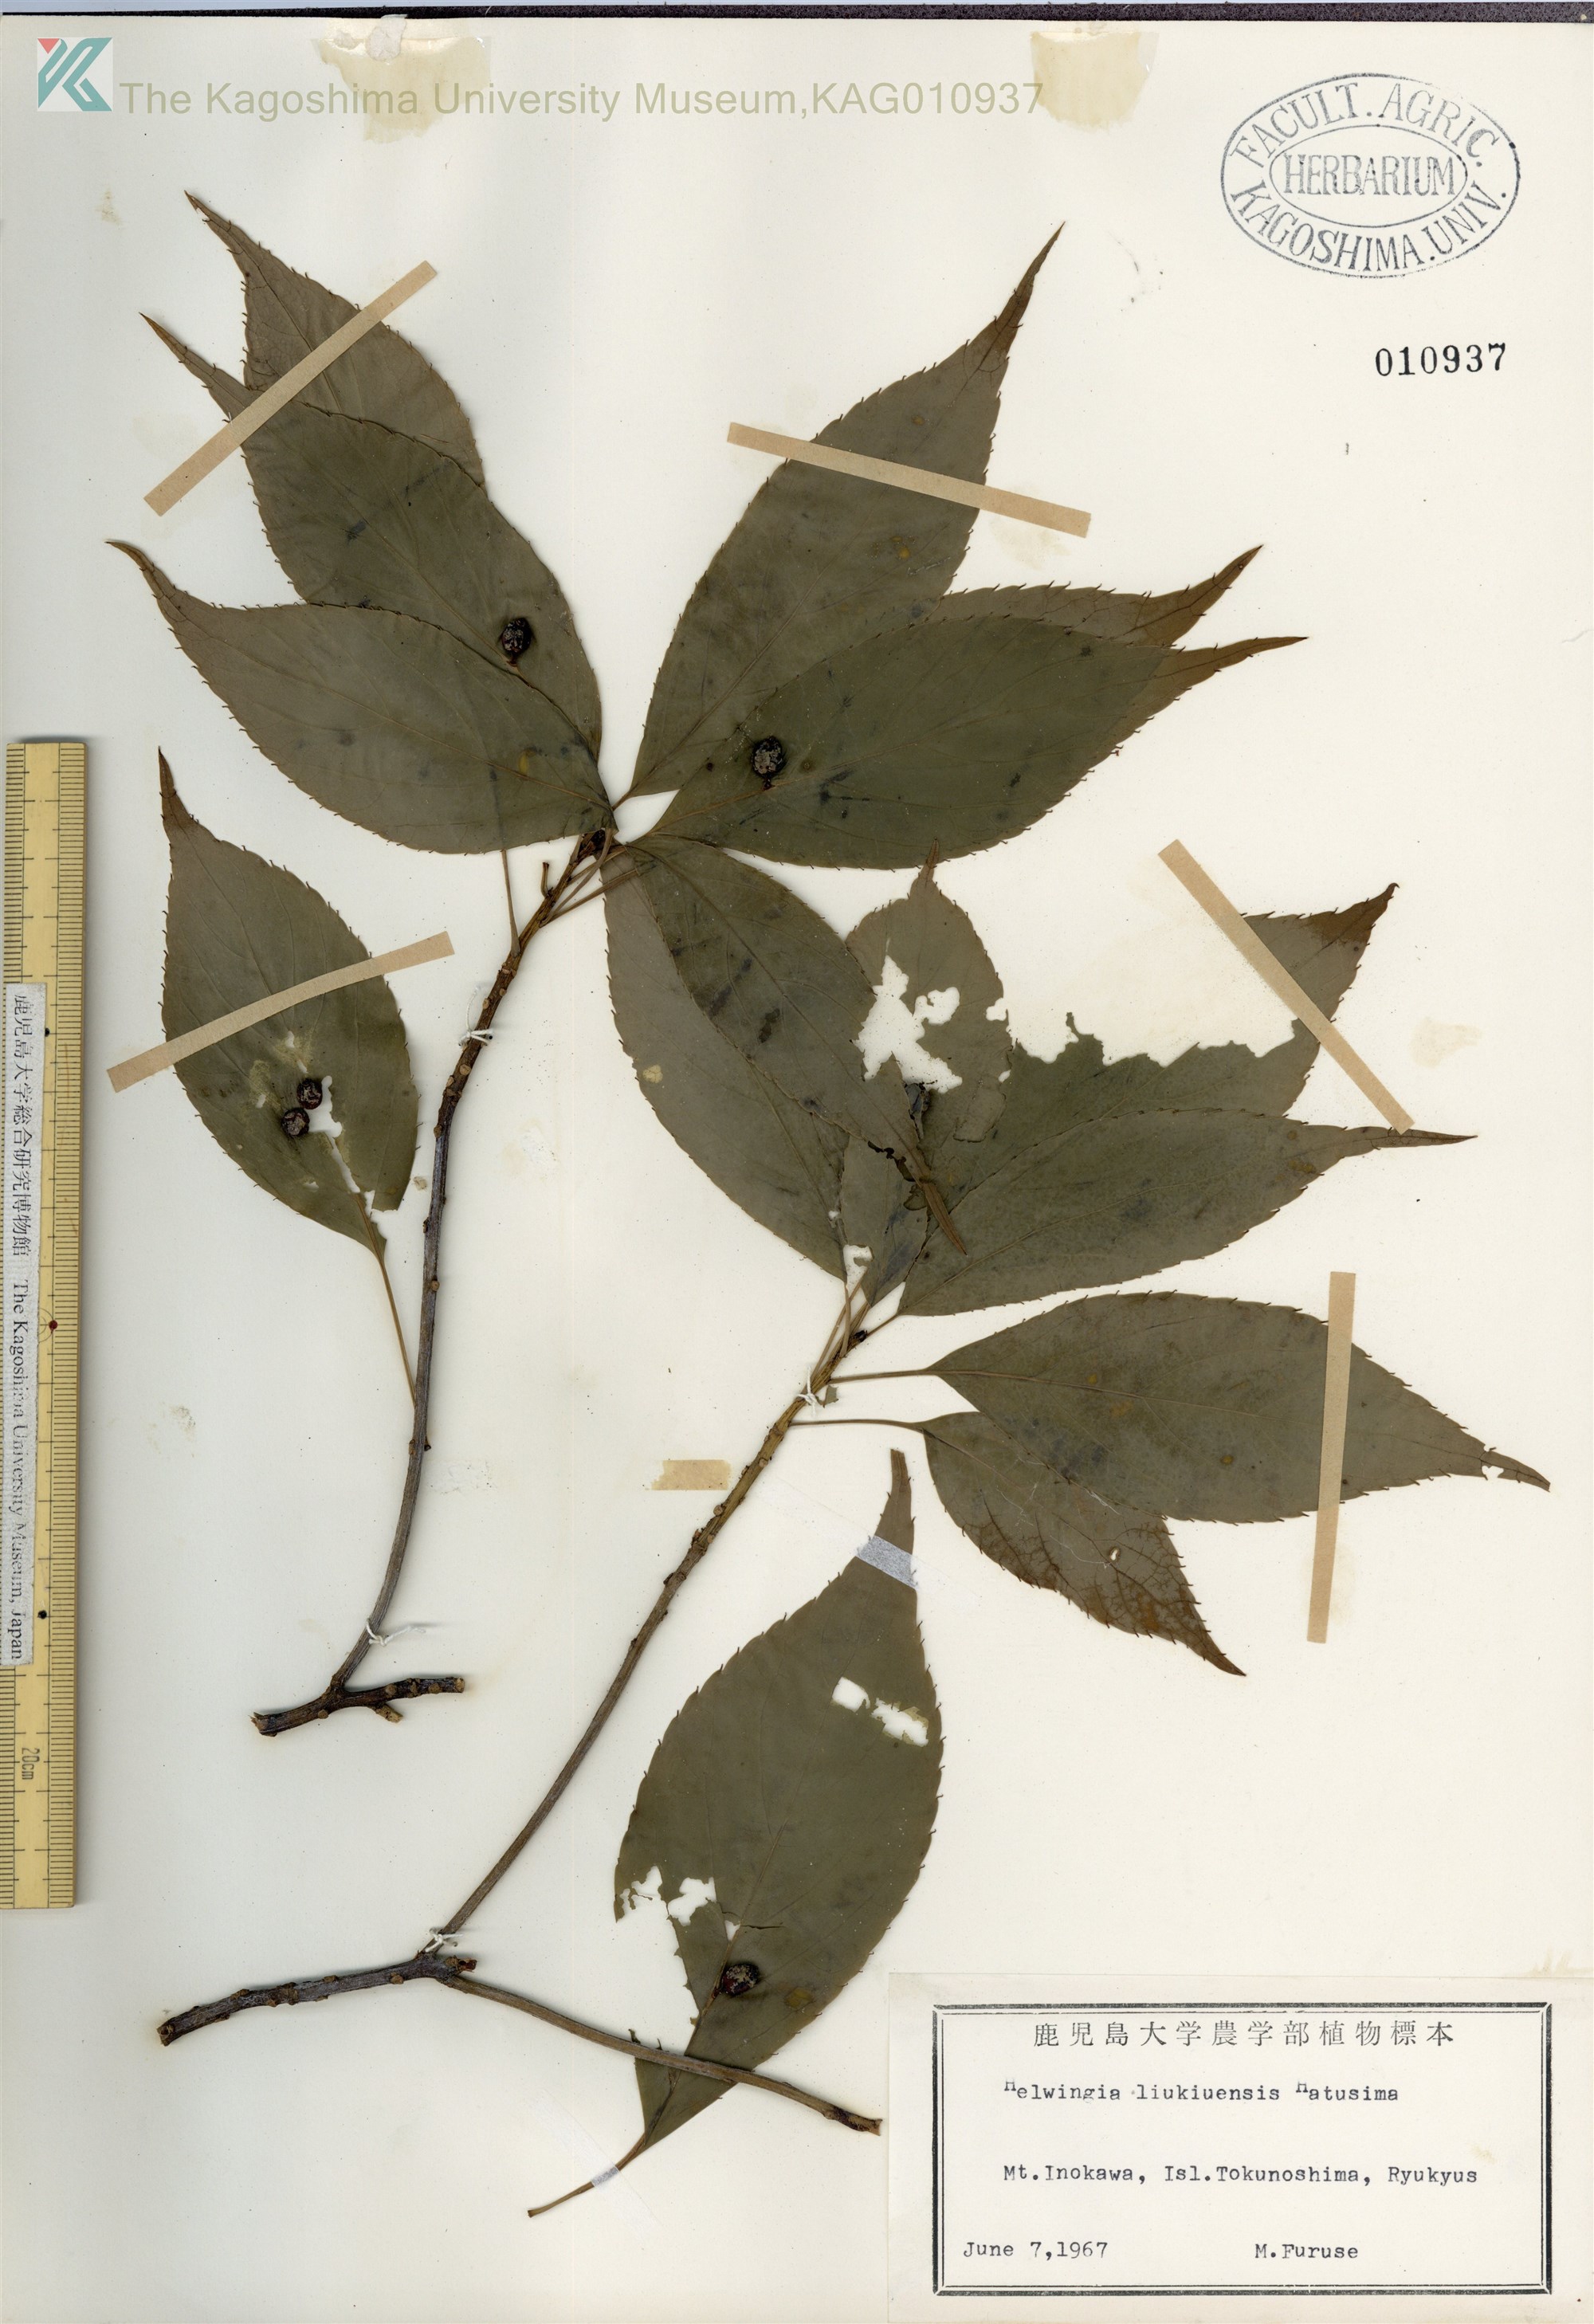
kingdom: Plantae
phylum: Tracheophyta
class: Magnoliopsida
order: Aquifoliales
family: Helwingiaceae
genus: Helwingia
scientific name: Helwingia japonica
